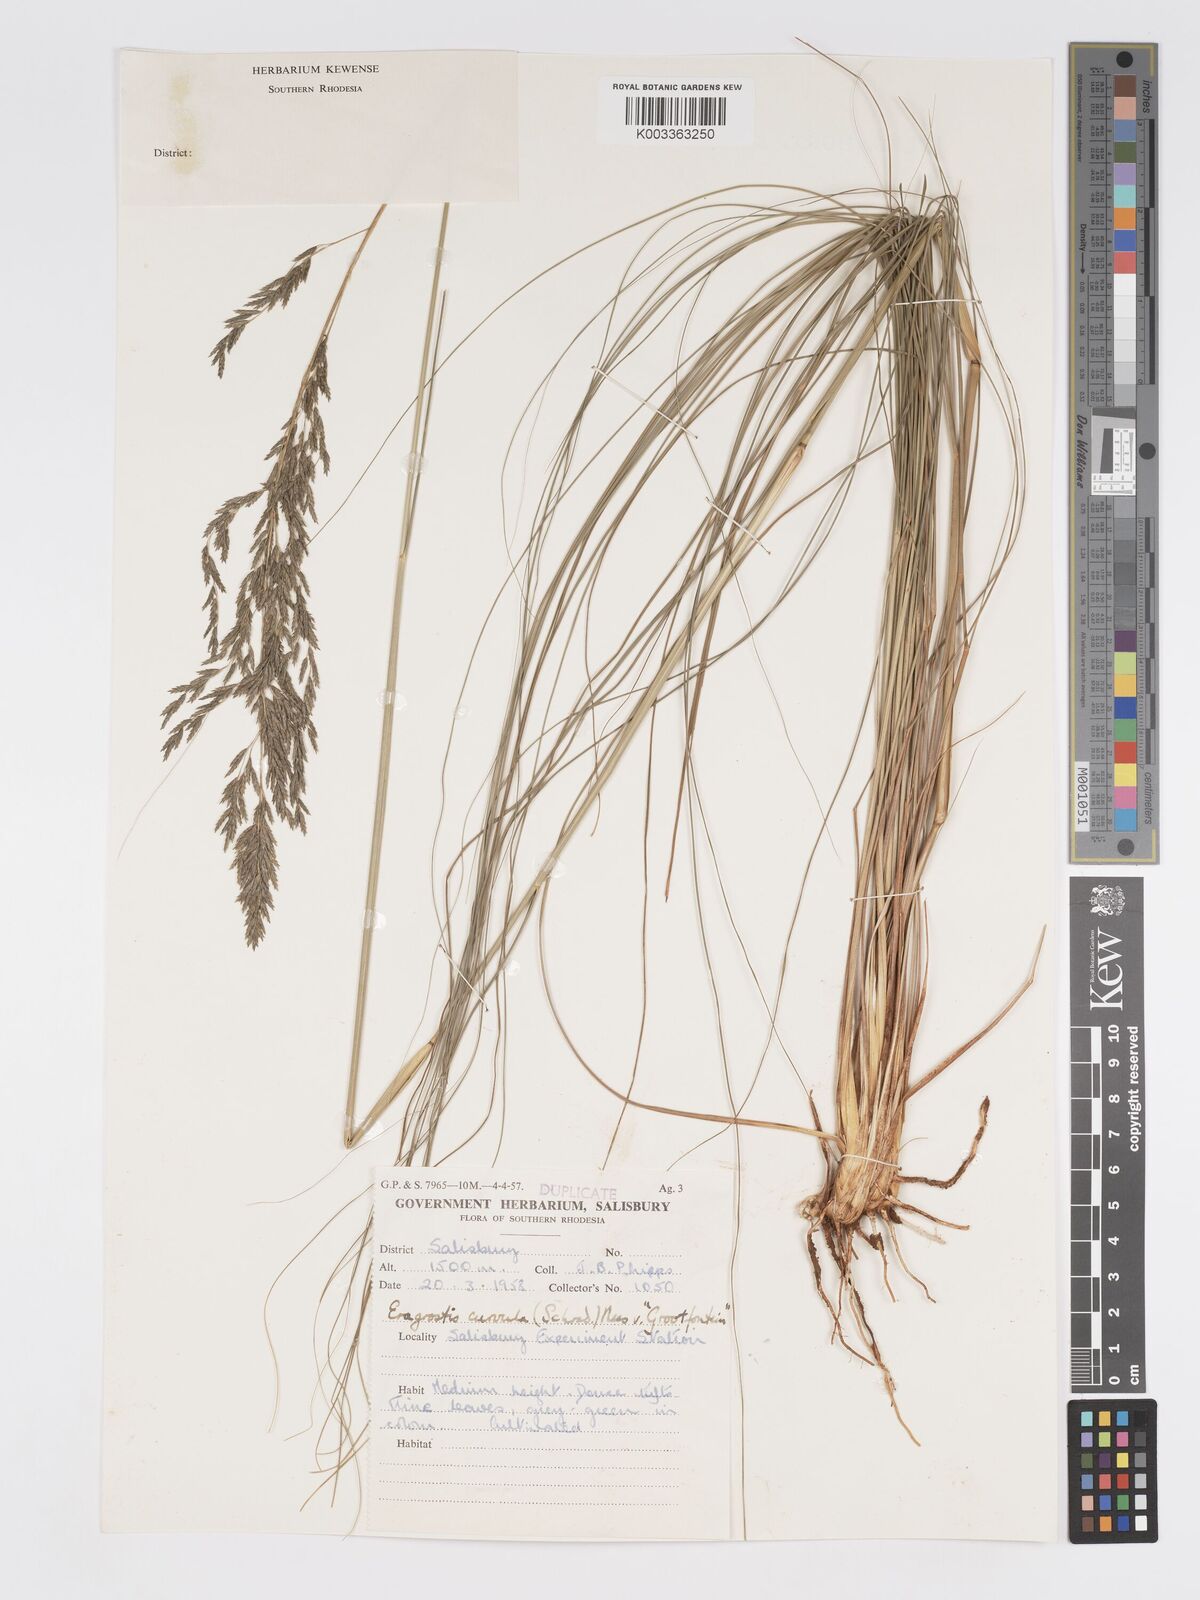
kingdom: Plantae
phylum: Tracheophyta
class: Liliopsida
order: Poales
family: Poaceae
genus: Eragrostis
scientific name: Eragrostis curvula
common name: African love-grass
